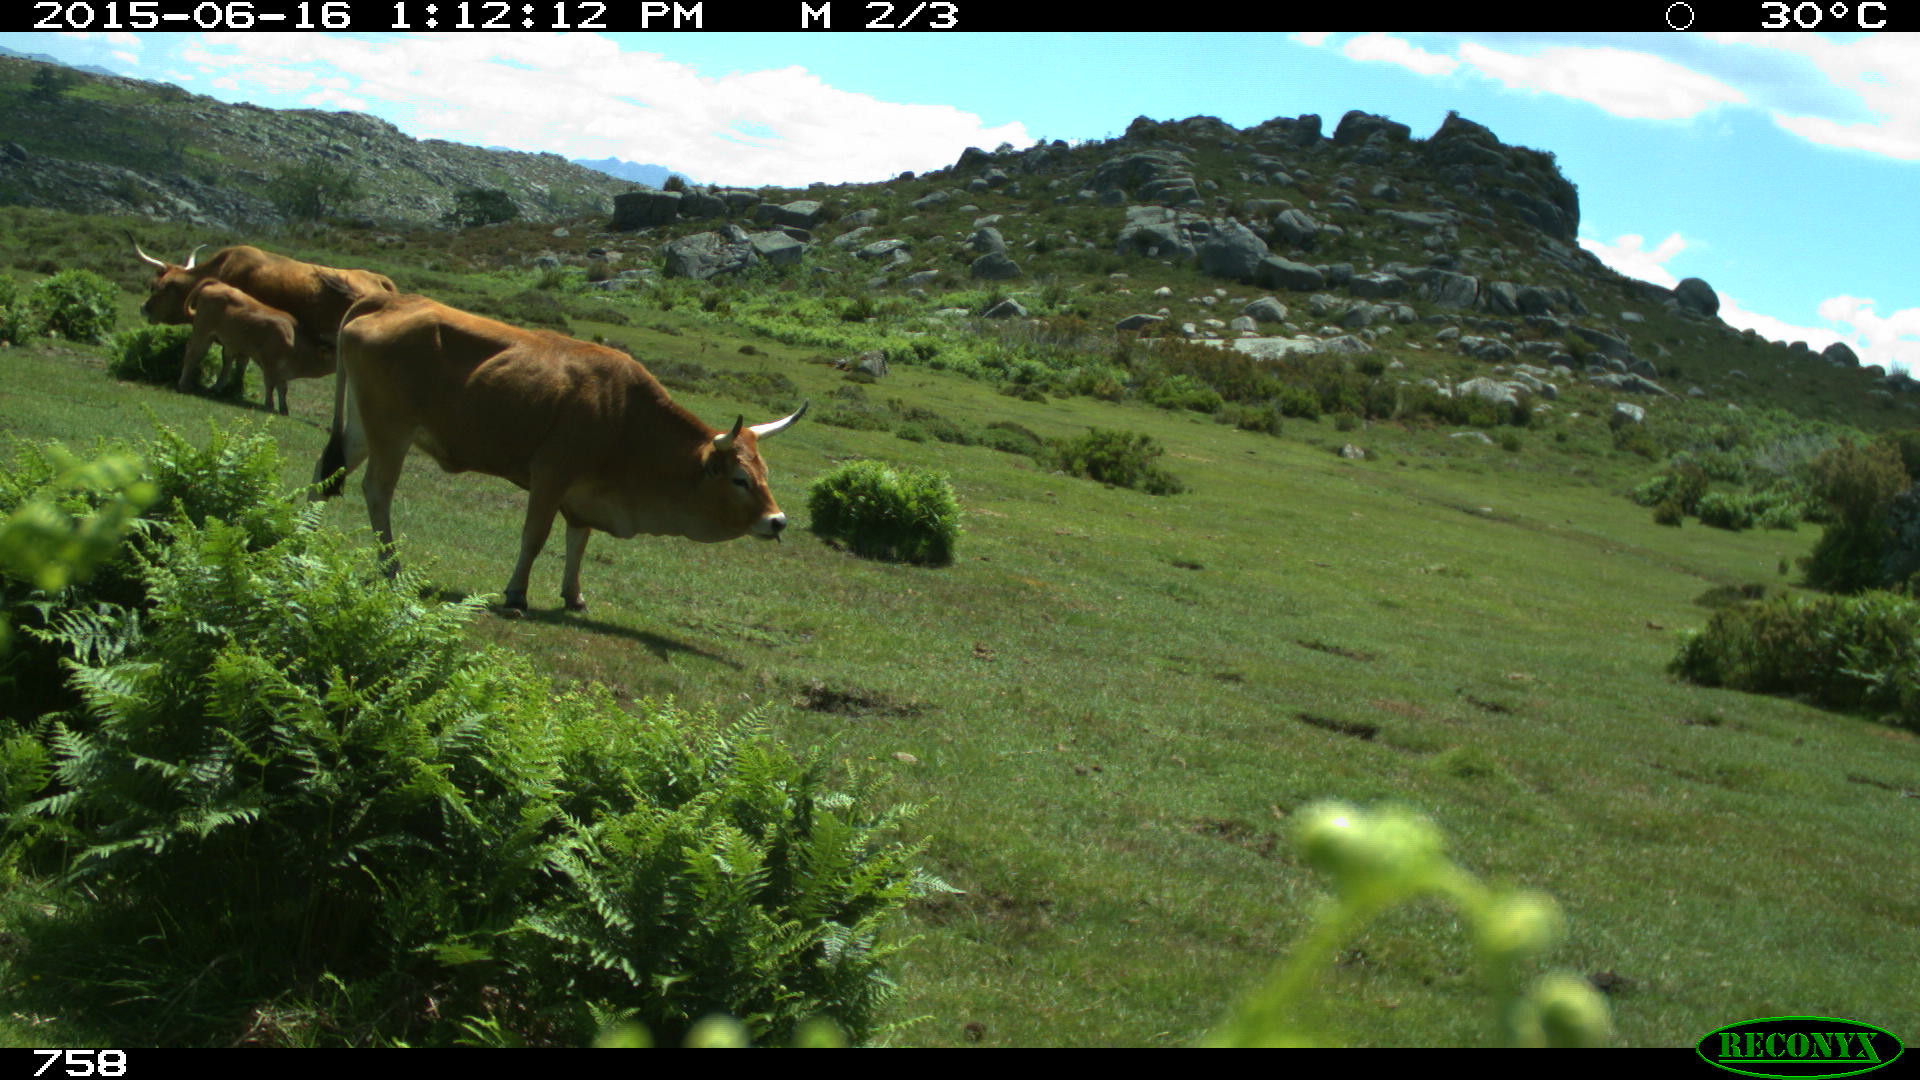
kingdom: Animalia
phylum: Chordata
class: Mammalia
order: Artiodactyla
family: Bovidae
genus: Bos
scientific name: Bos taurus
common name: Domesticated cattle
